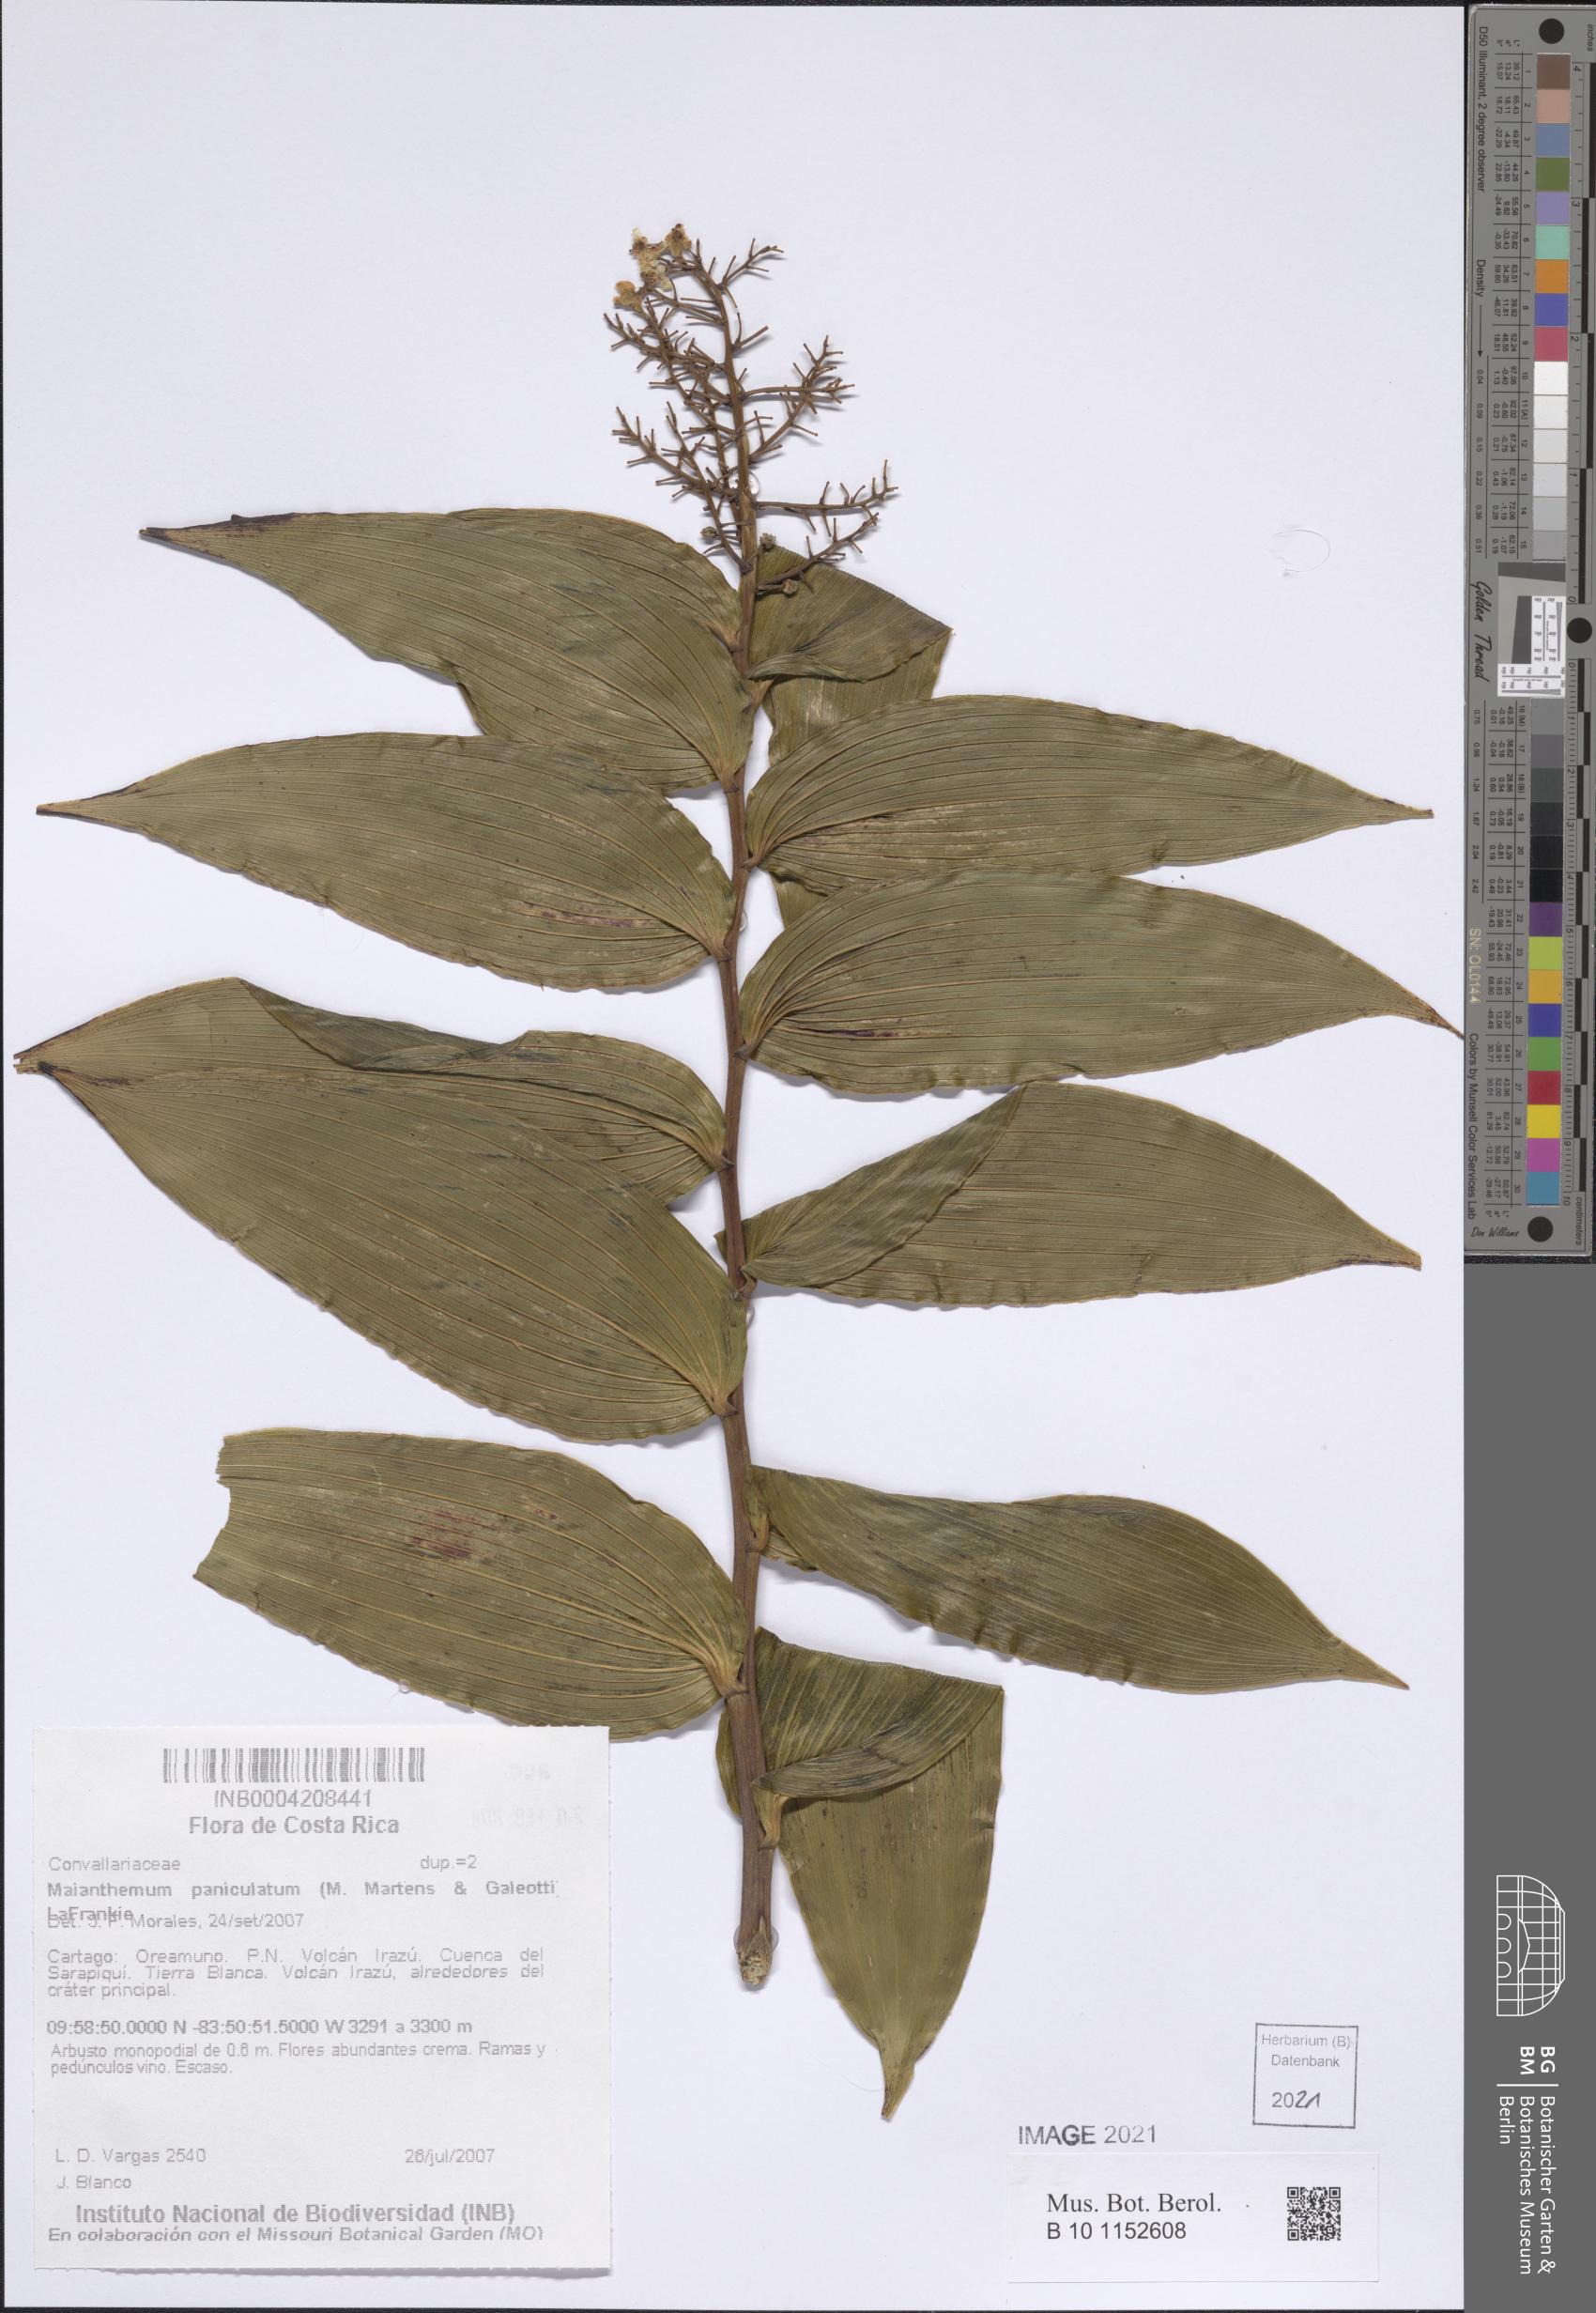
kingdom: Plantae
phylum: Tracheophyta
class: Liliopsida
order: Asparagales
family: Asparagaceae
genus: Maianthemum
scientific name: Maianthemum paniculatum
